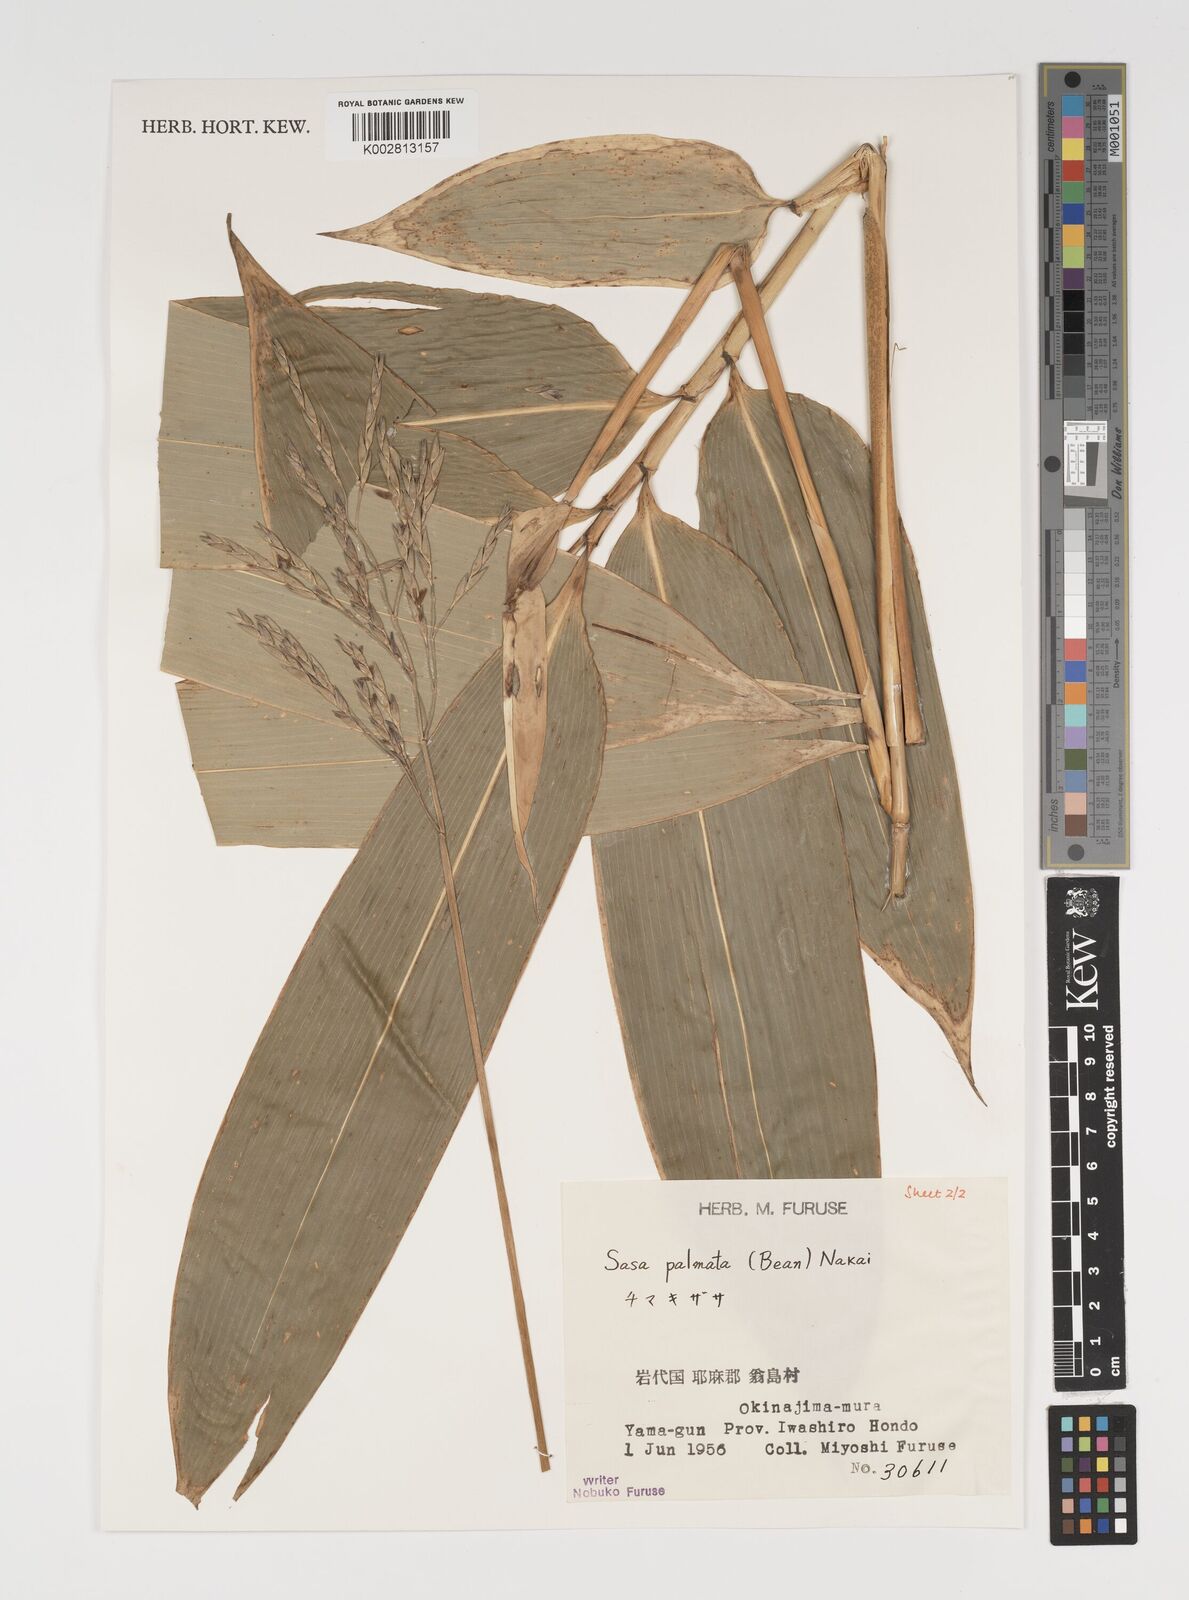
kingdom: Plantae
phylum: Tracheophyta
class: Liliopsida
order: Poales
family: Poaceae
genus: Sasa
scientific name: Sasa palmata
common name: Broad-leaved bamboo
